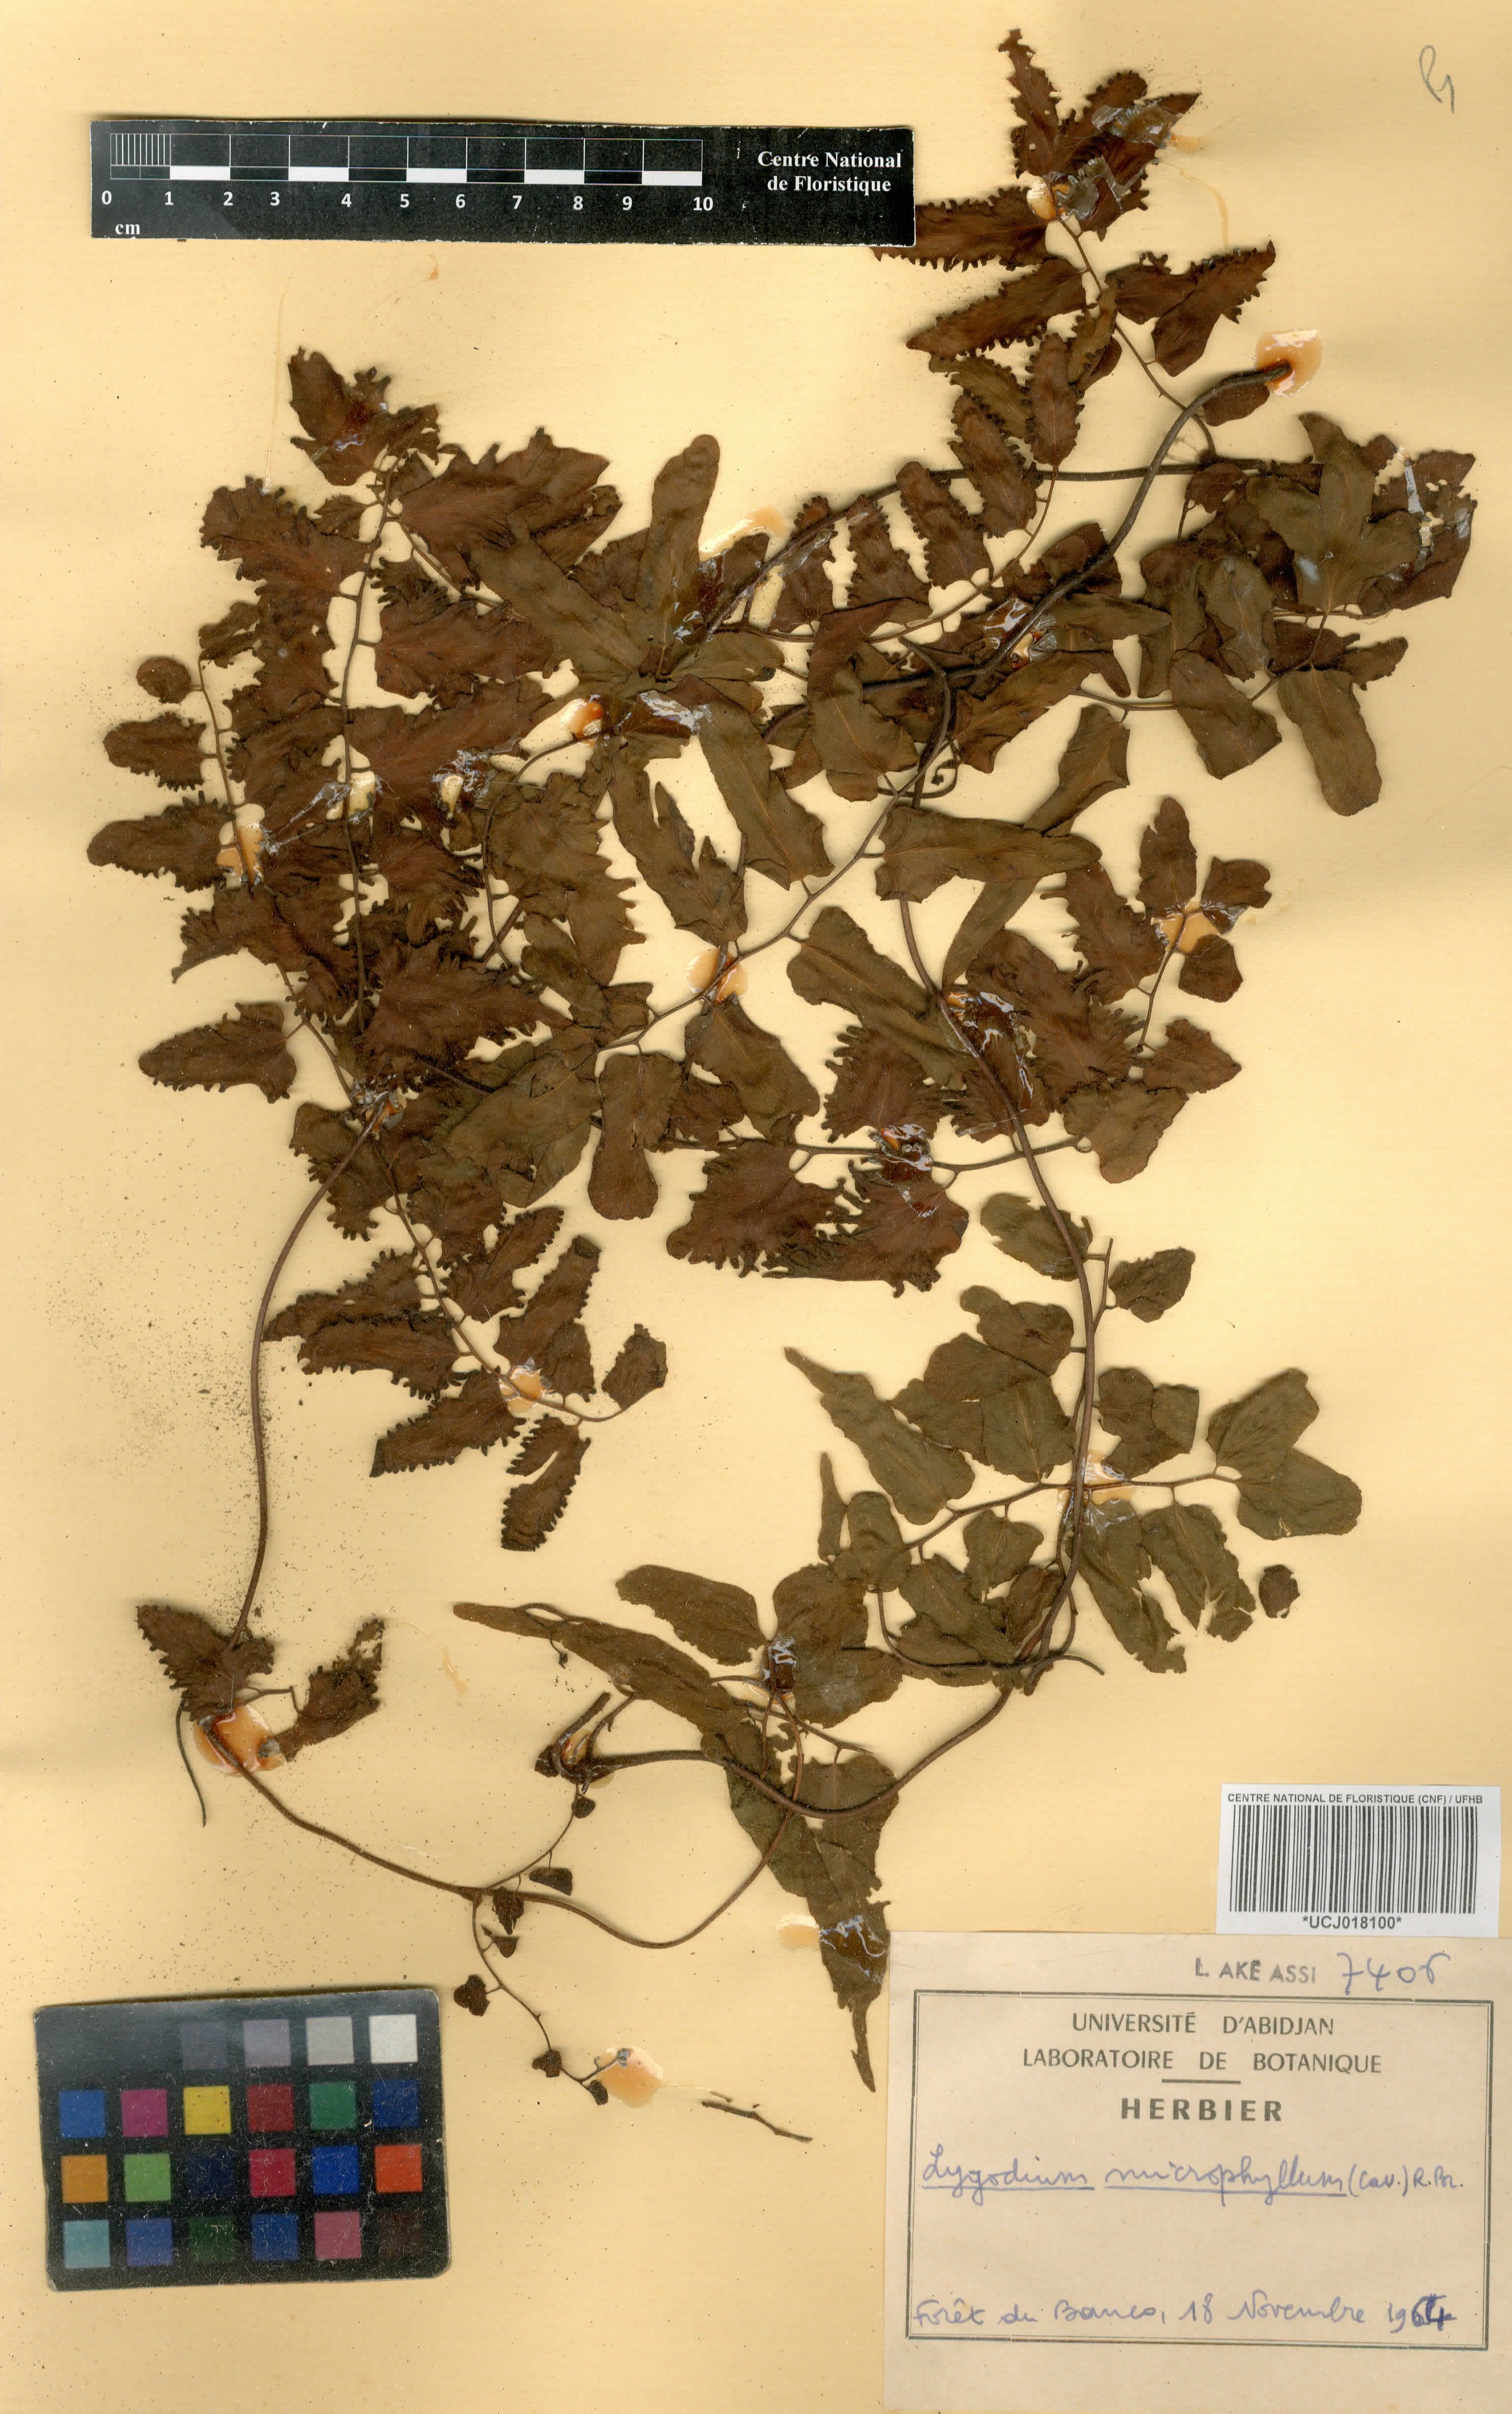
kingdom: Plantae
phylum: Tracheophyta
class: Polypodiopsida
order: Schizaeales
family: Lygodiaceae
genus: Lygodium
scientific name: Lygodium microphyllum
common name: Small-leaf climbing fern
